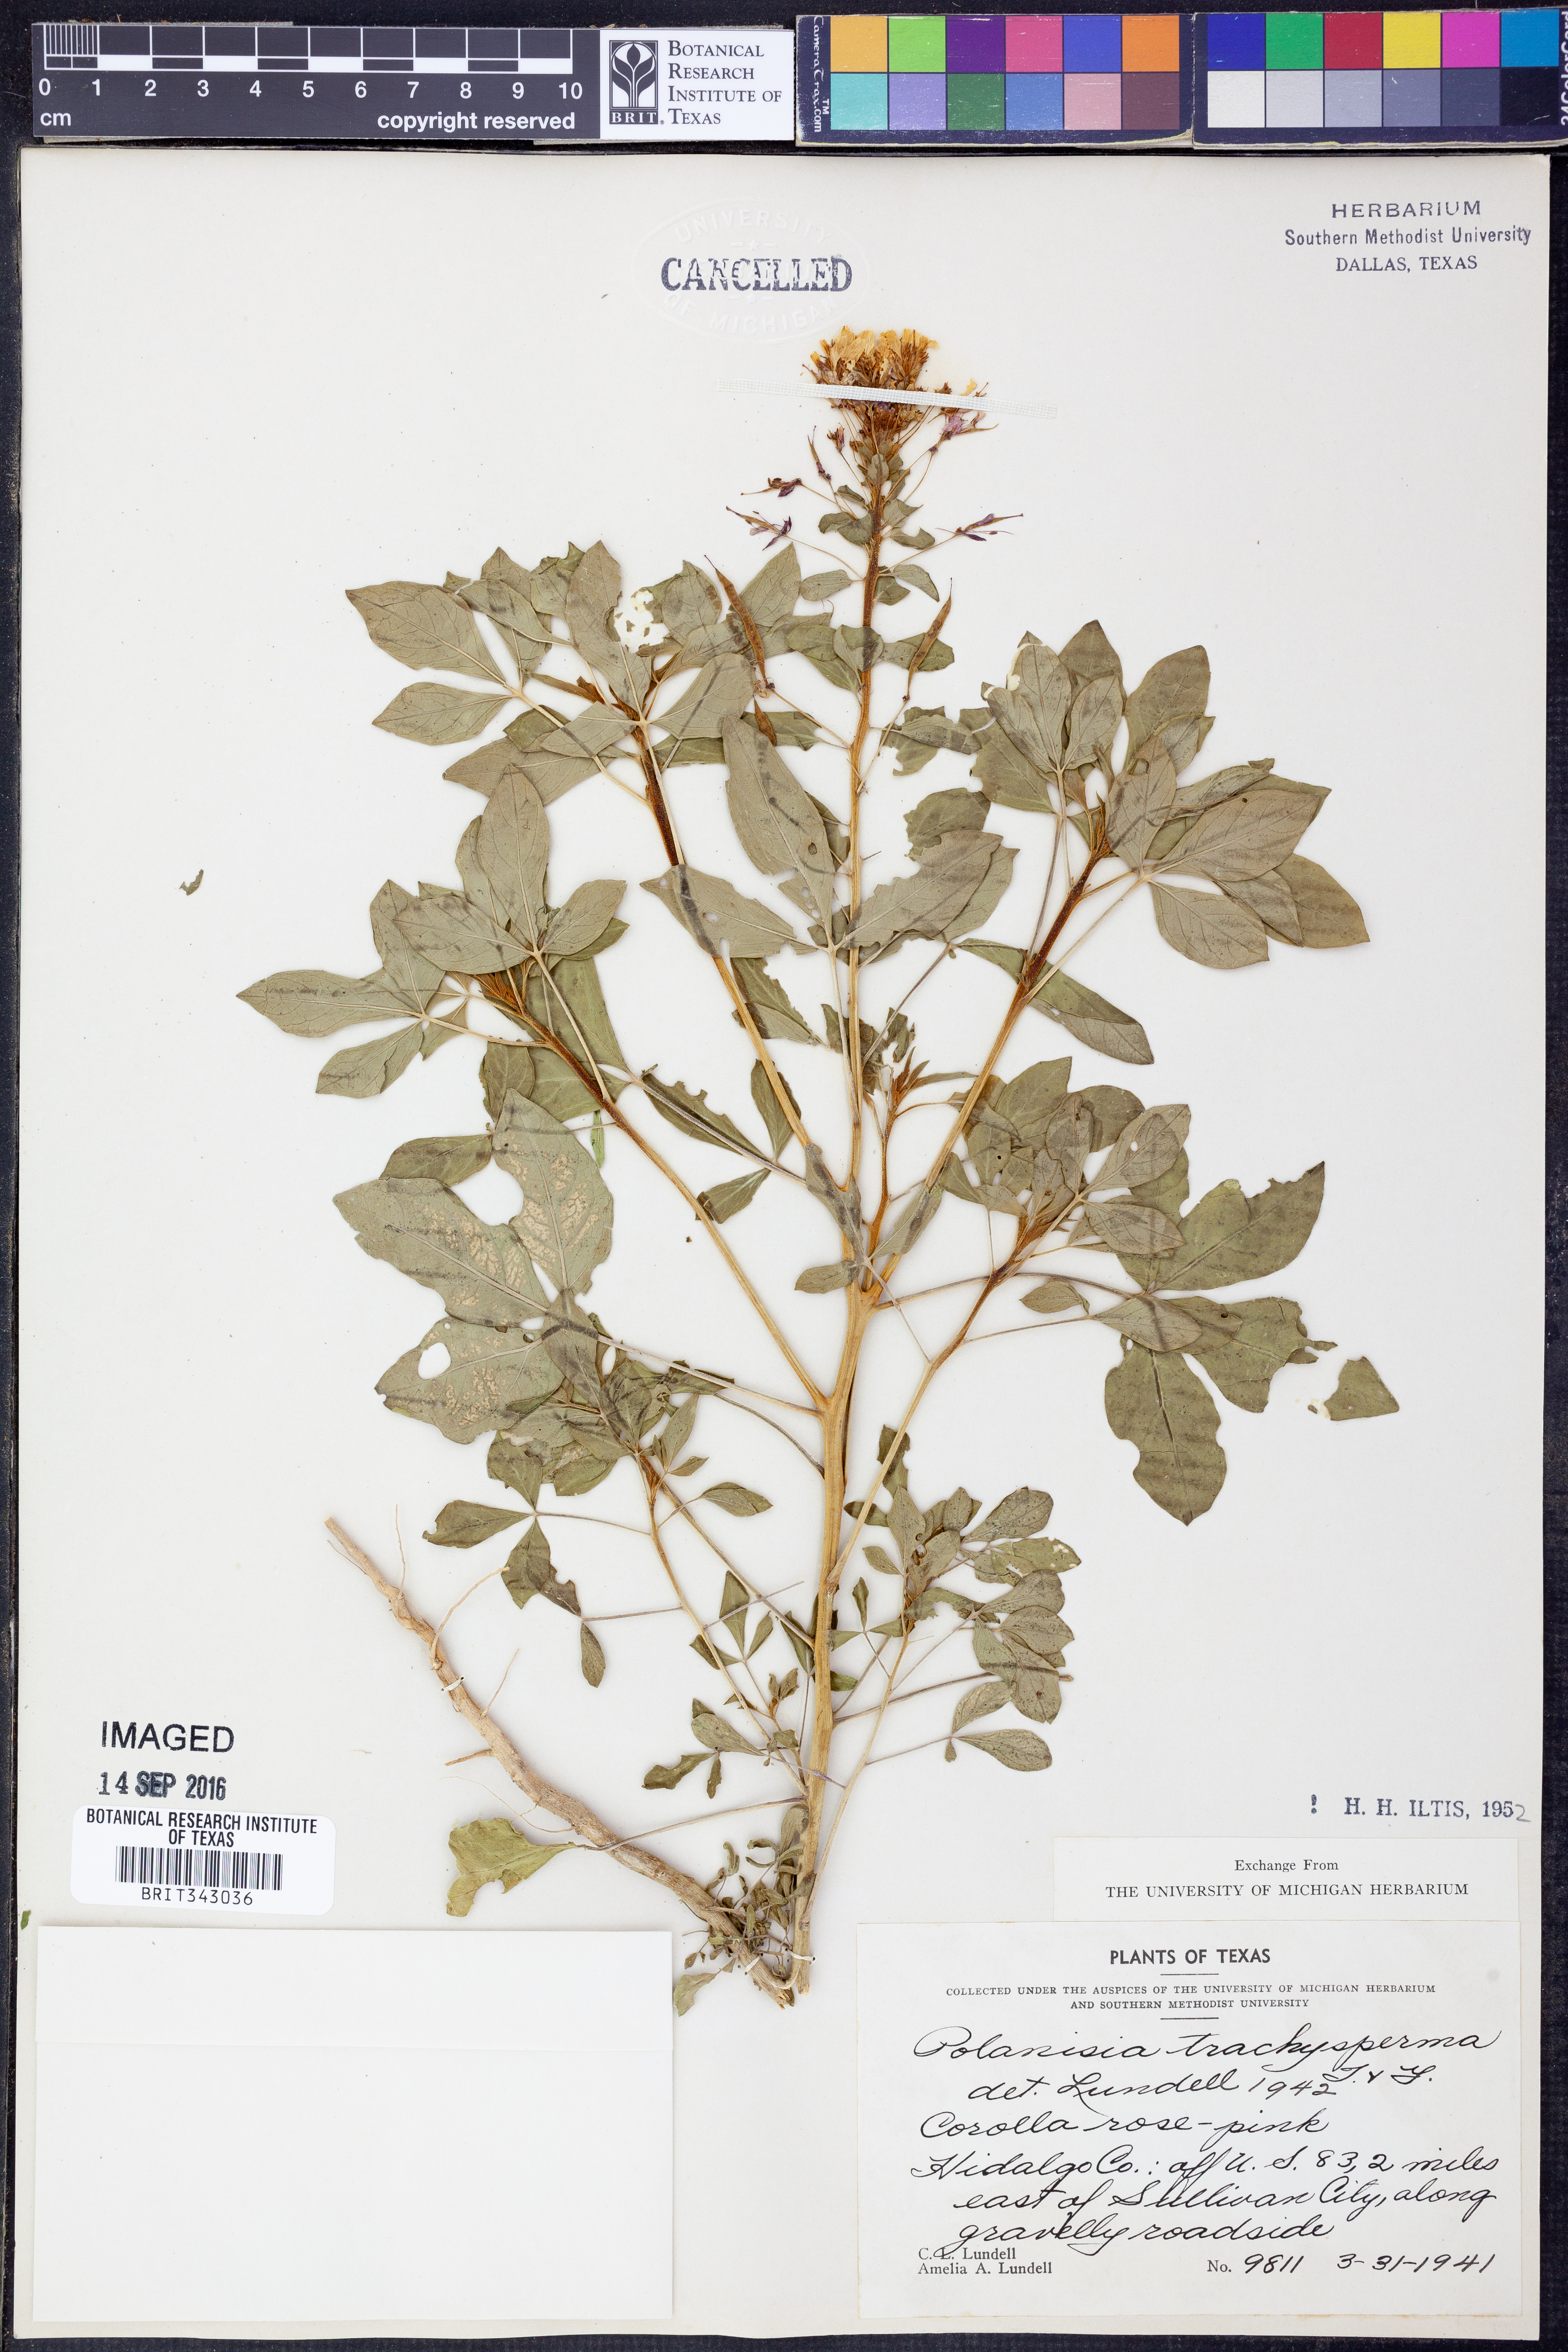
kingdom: Plantae
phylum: Tracheophyta
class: Magnoliopsida
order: Brassicales
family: Cleomaceae
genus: Polanisia
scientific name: Polanisia trachysperma
